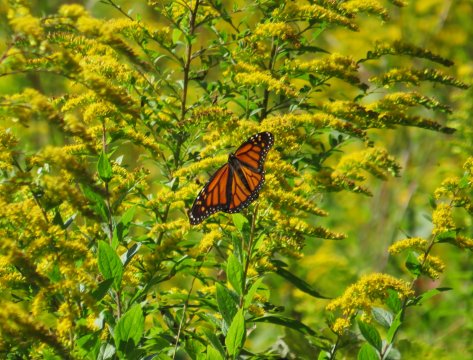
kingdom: Animalia
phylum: Arthropoda
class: Insecta
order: Lepidoptera
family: Nymphalidae
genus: Danaus
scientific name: Danaus plexippus
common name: Monarch
